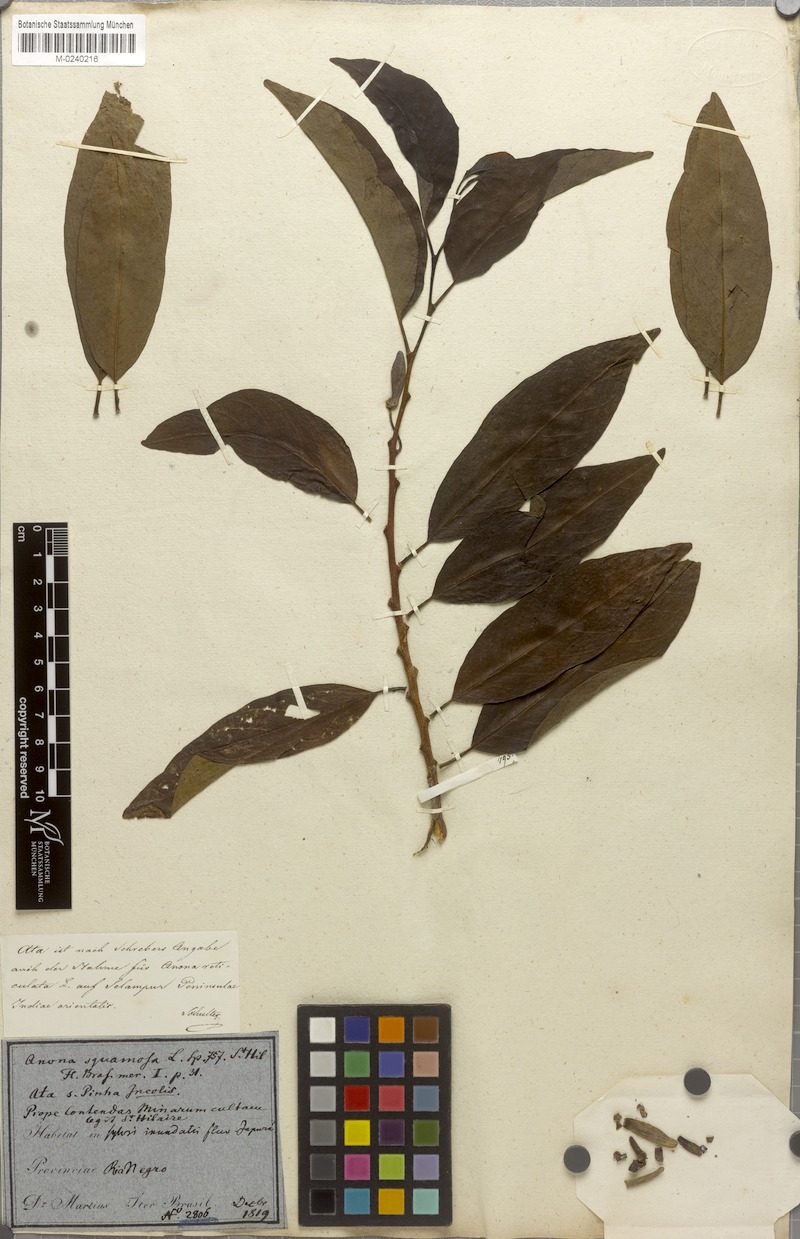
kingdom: Plantae
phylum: Tracheophyta
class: Magnoliopsida
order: Magnoliales
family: Annonaceae
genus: Annona
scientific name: Annona squamosa
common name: Custard-apple
